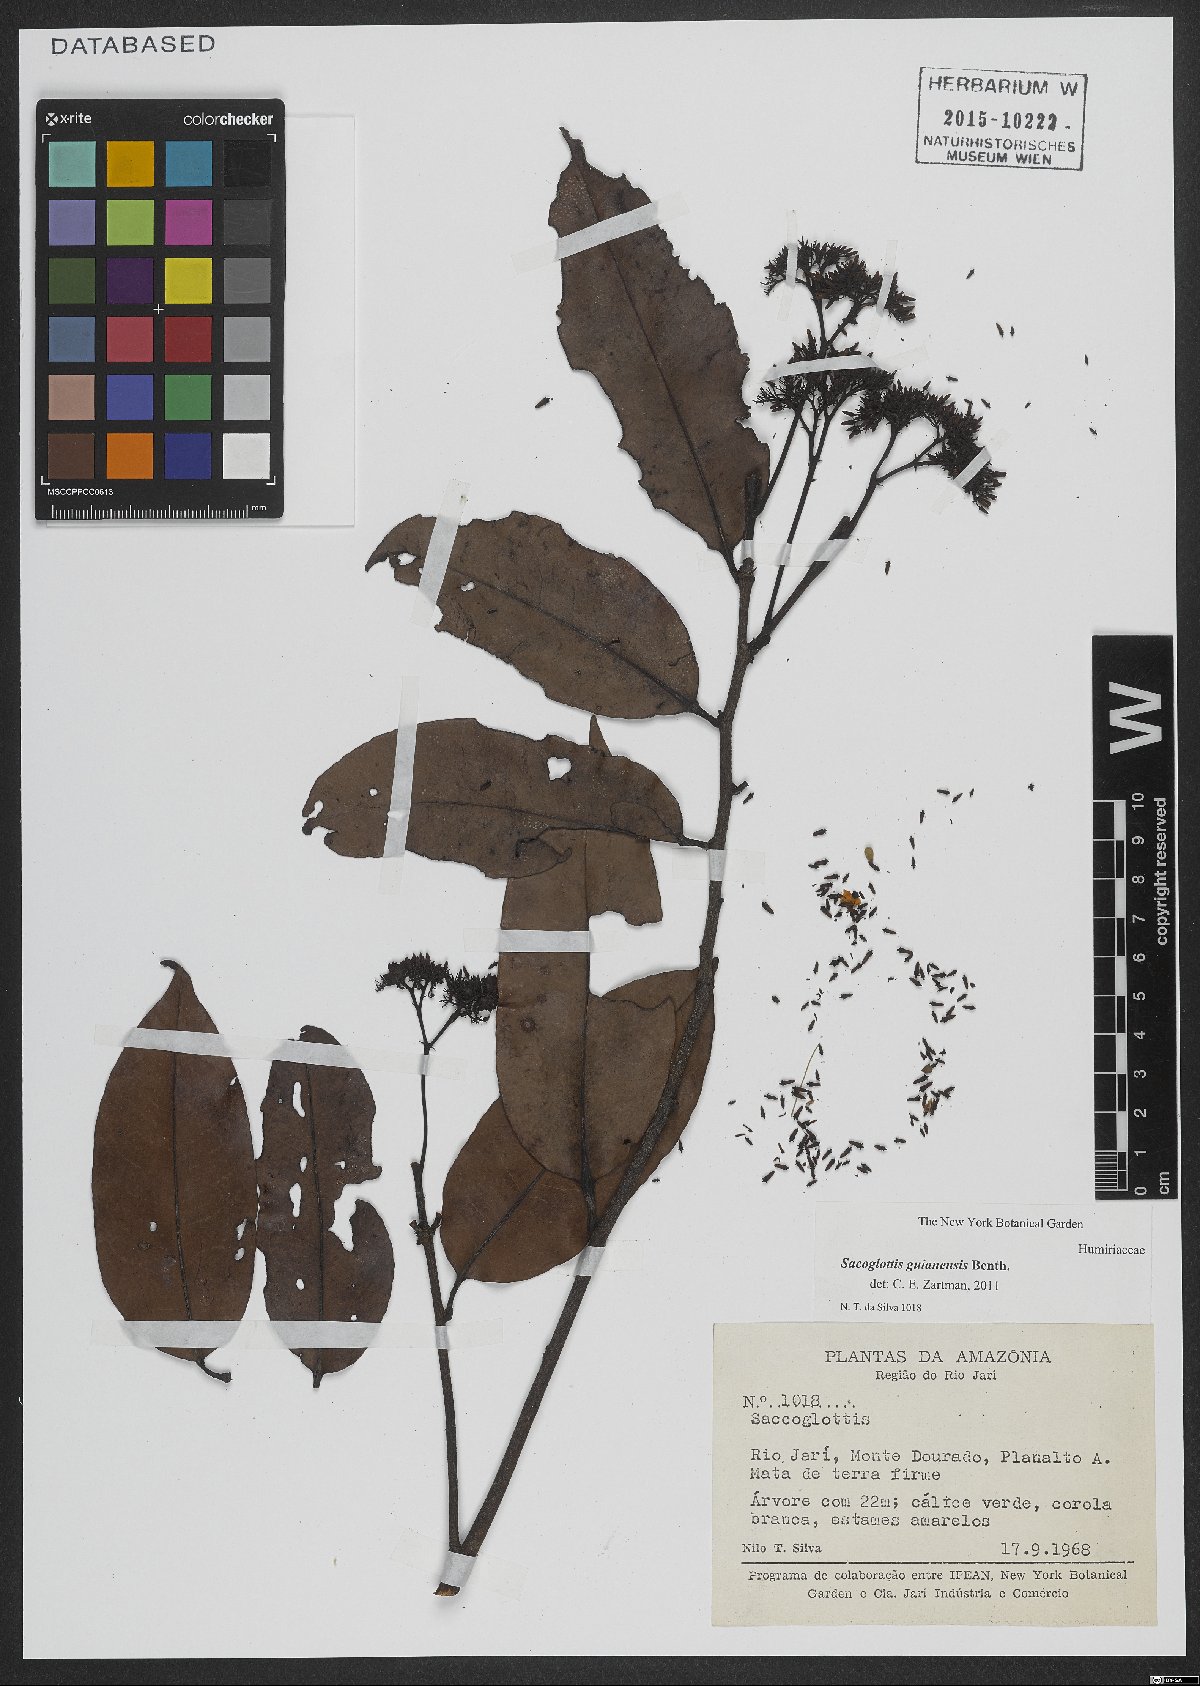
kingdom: Plantae
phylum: Tracheophyta
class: Magnoliopsida
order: Malpighiales
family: Humiriaceae
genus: Sacoglottis
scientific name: Sacoglottis guianensis
